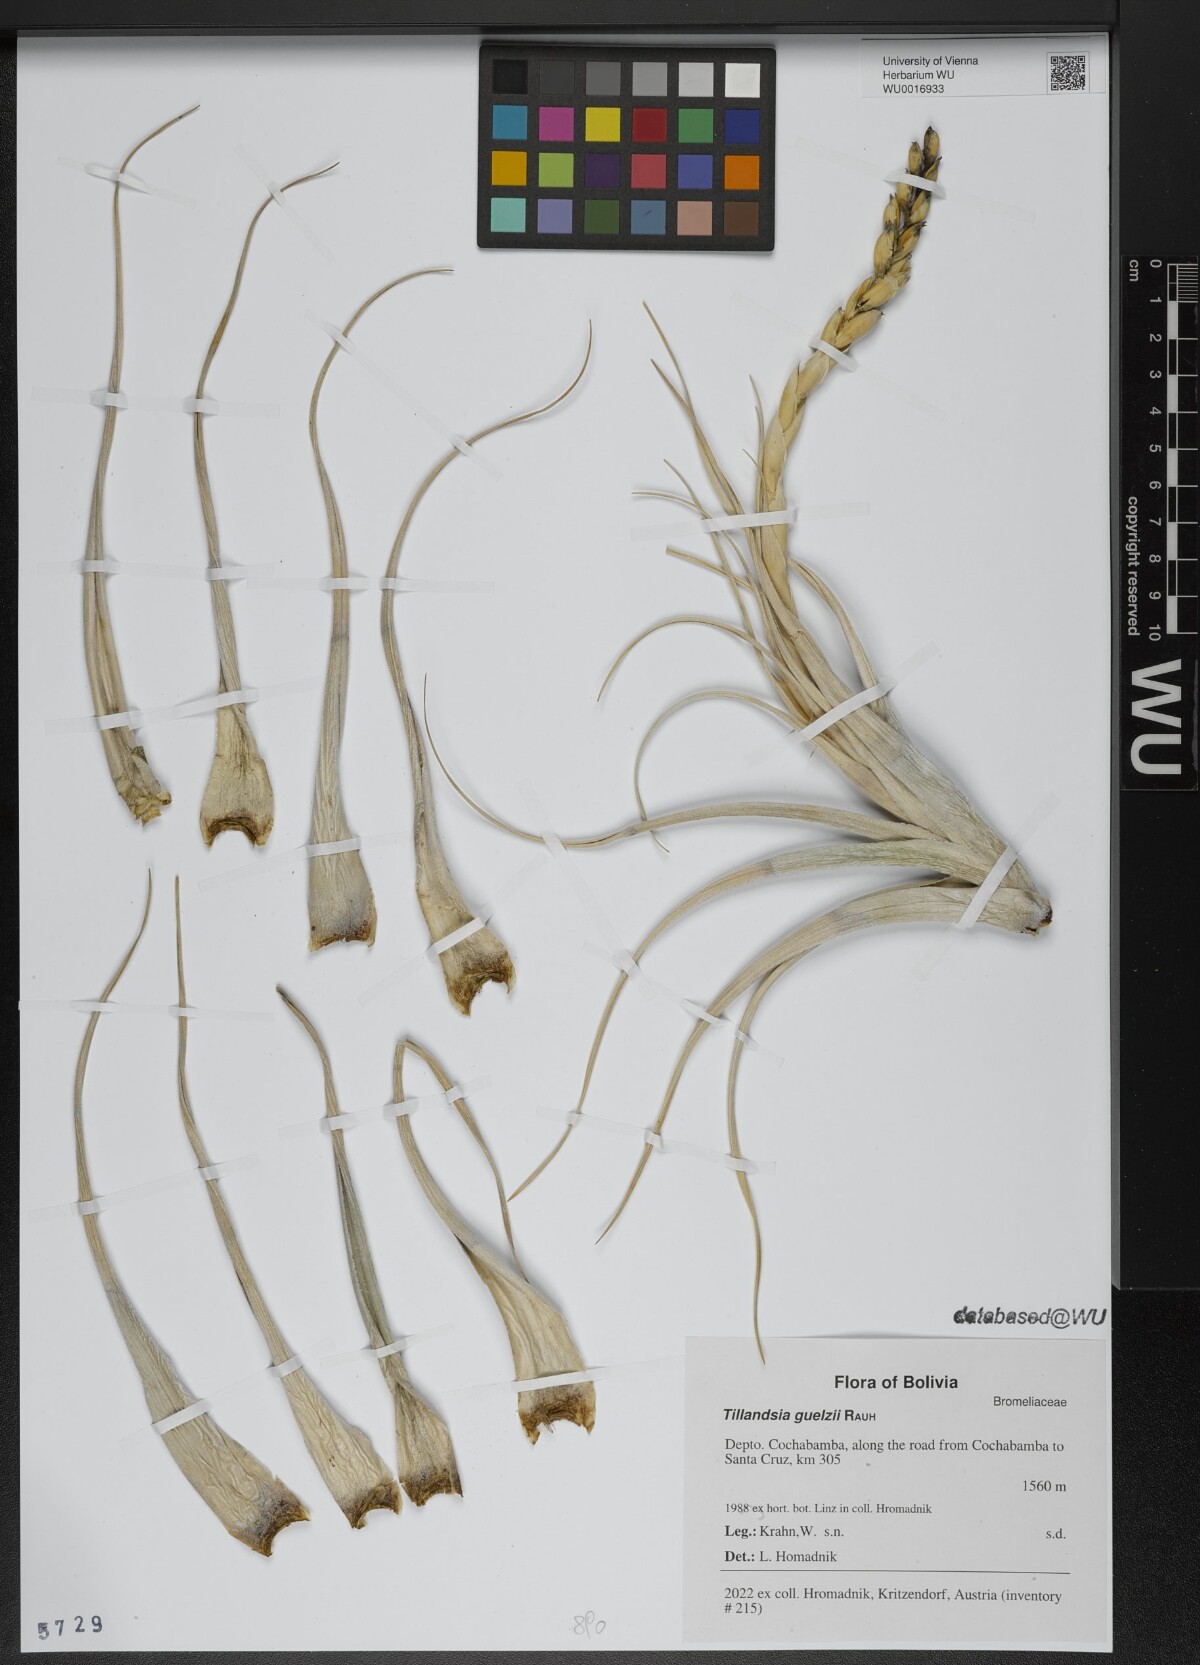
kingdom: Plantae
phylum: Tracheophyta
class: Liliopsida
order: Poales
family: Bromeliaceae
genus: Tillandsia
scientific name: Tillandsia guelzii
